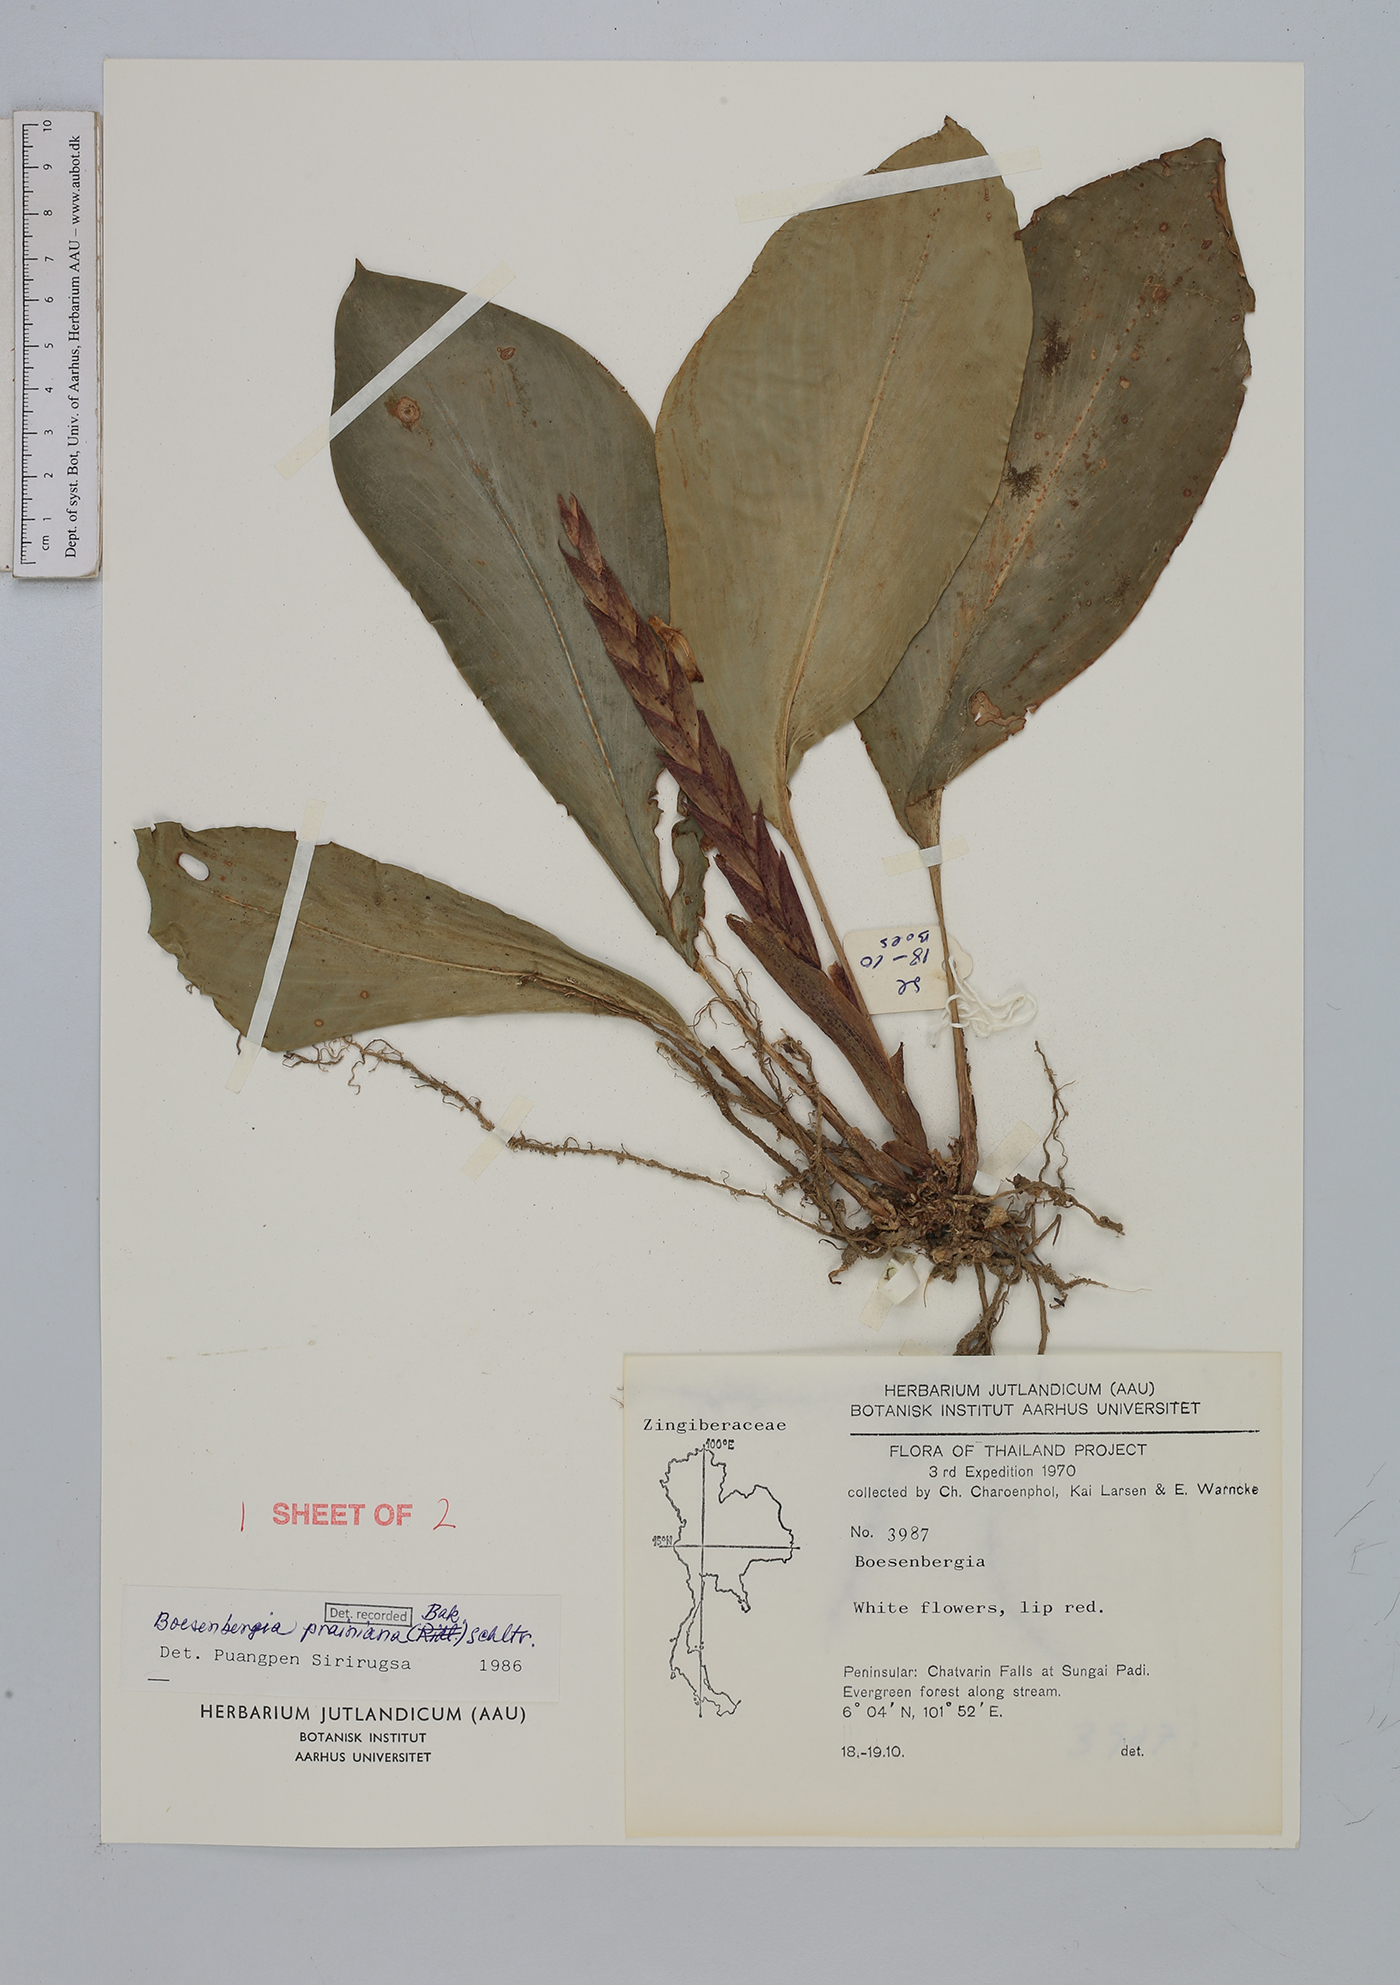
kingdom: Plantae
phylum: Tracheophyta
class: Liliopsida
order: Zingiberales
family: Zingiberaceae
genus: Boesenbergia
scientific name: Boesenbergia prainiana
